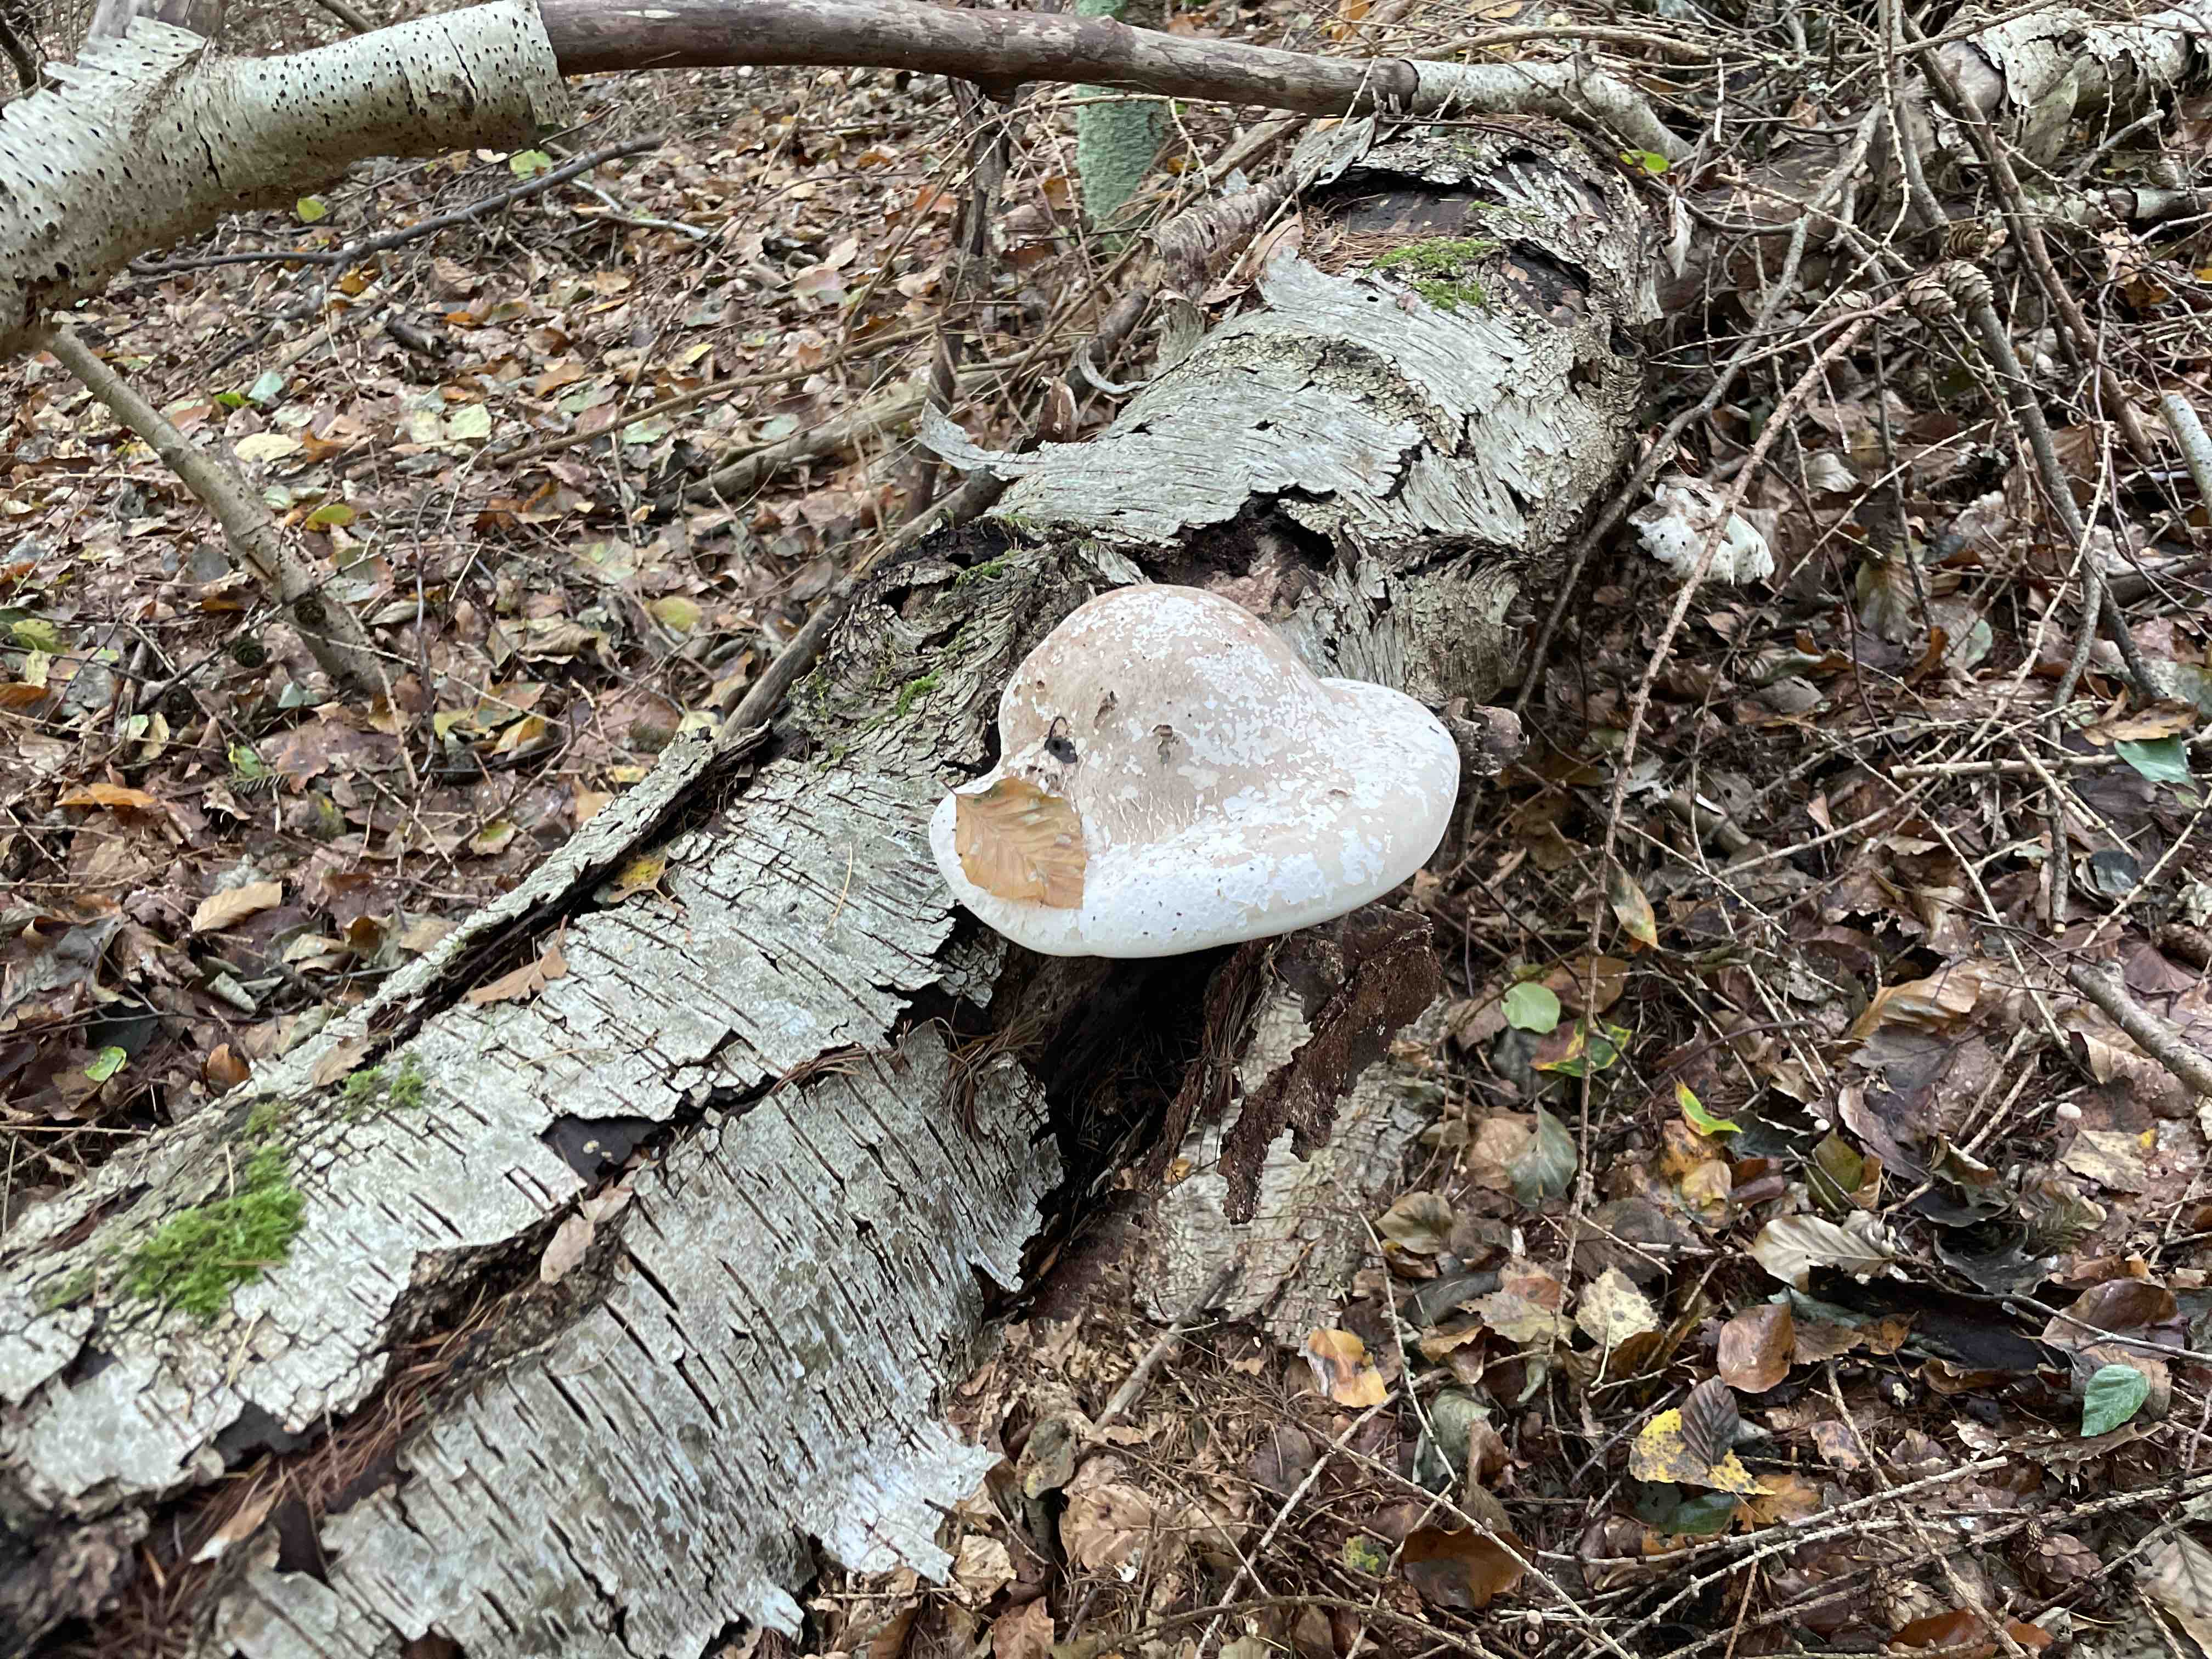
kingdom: Fungi
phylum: Basidiomycota
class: Agaricomycetes
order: Polyporales
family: Fomitopsidaceae
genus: Fomitopsis
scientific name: Fomitopsis betulina
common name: birkeporesvamp
